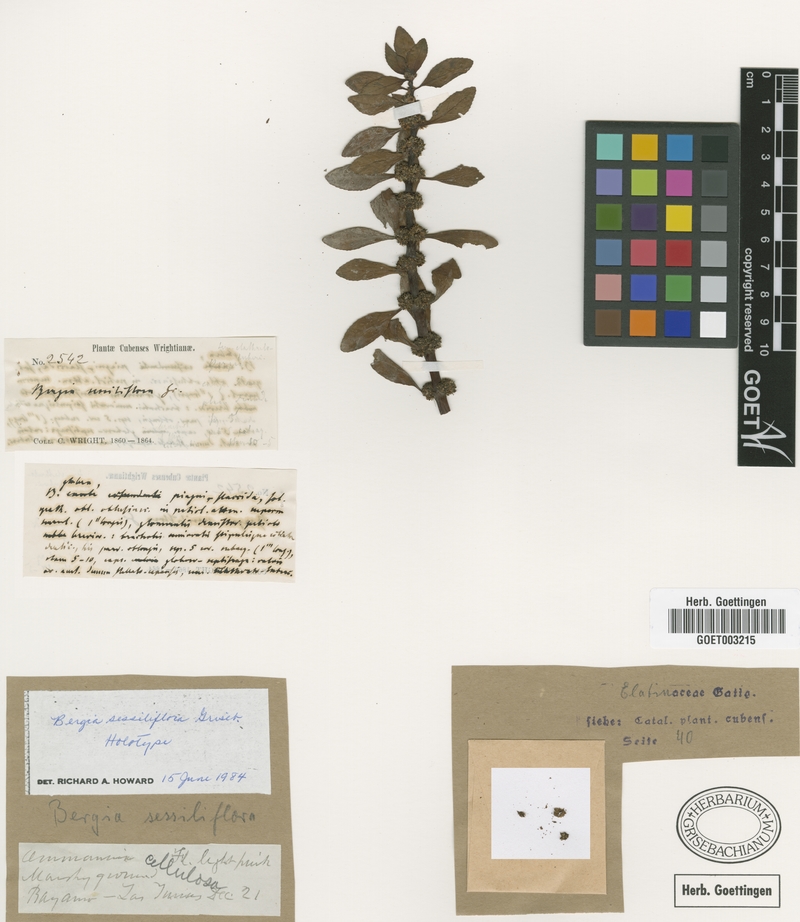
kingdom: Plantae
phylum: Tracheophyta
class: Magnoliopsida
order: Malpighiales
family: Elatinaceae
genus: Bergia
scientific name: Bergia capensis
